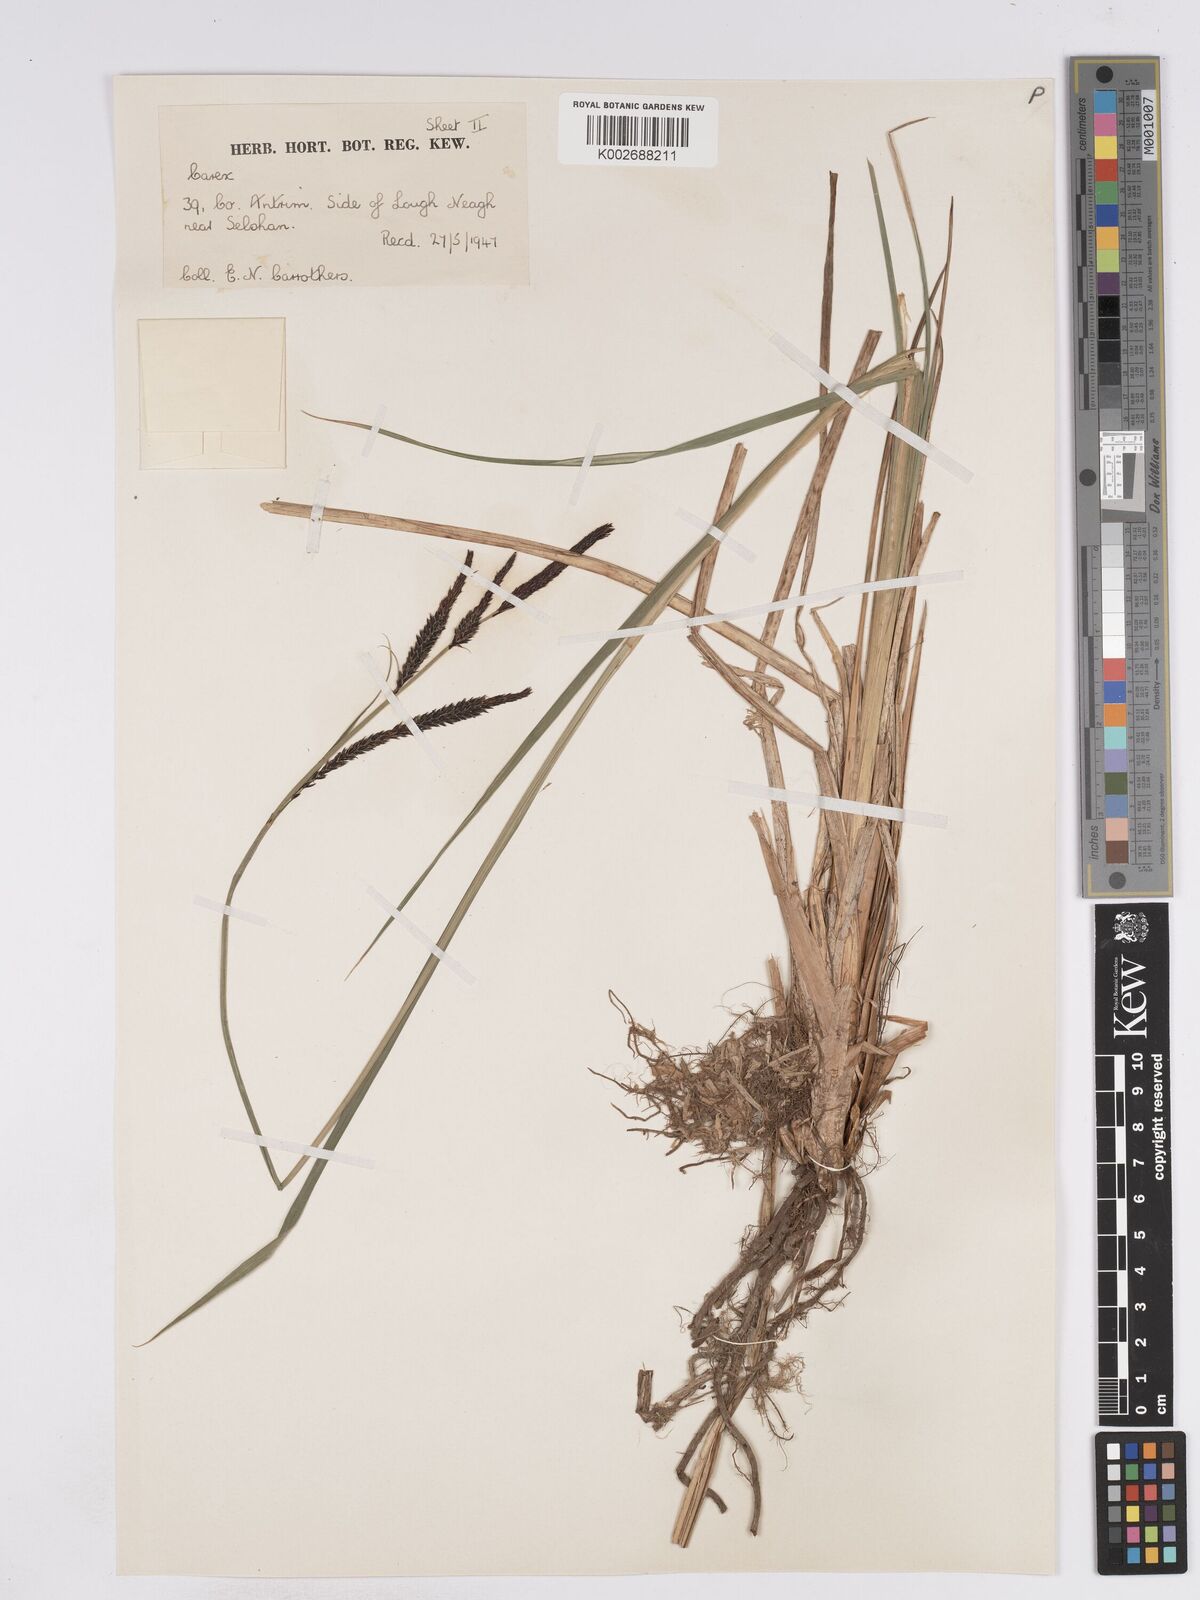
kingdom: Plantae
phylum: Tracheophyta
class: Liliopsida
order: Poales
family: Cyperaceae
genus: Carex
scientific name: Carex elata
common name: Tufted sedge
